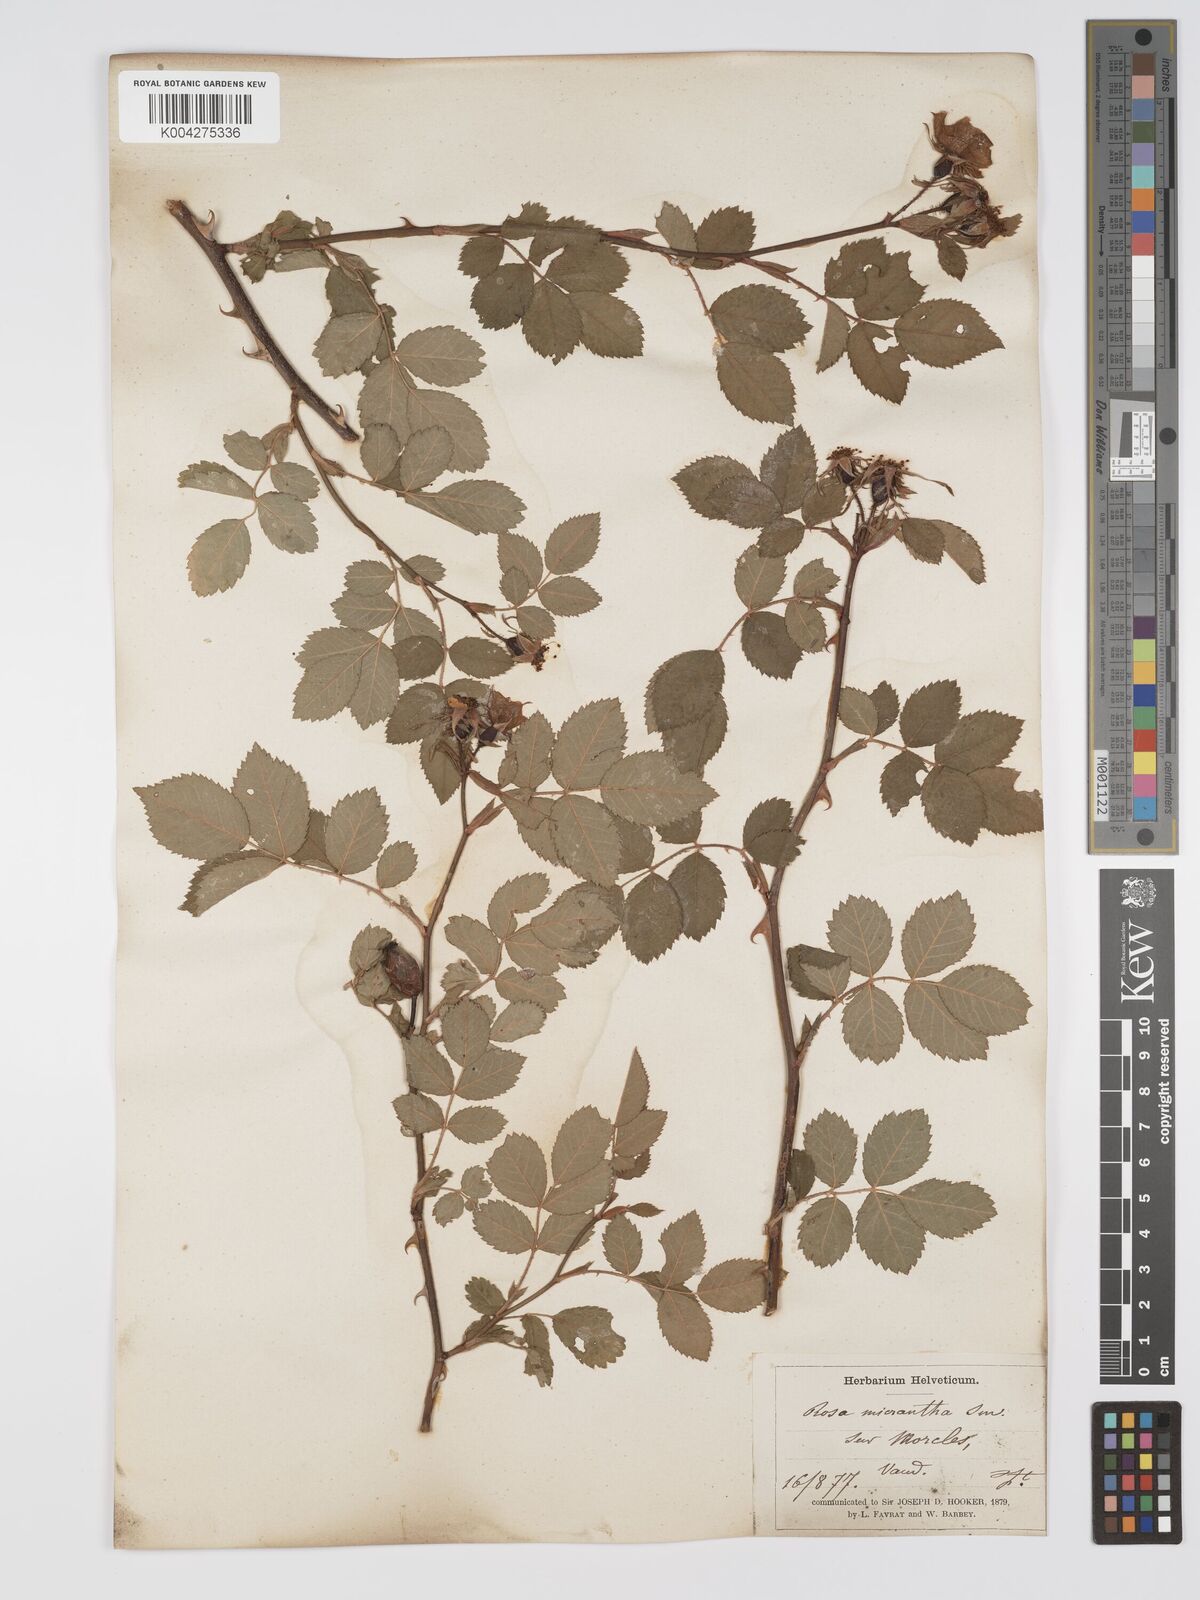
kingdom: Plantae
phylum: Tracheophyta
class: Magnoliopsida
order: Rosales
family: Rosaceae
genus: Rosa
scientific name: Rosa
